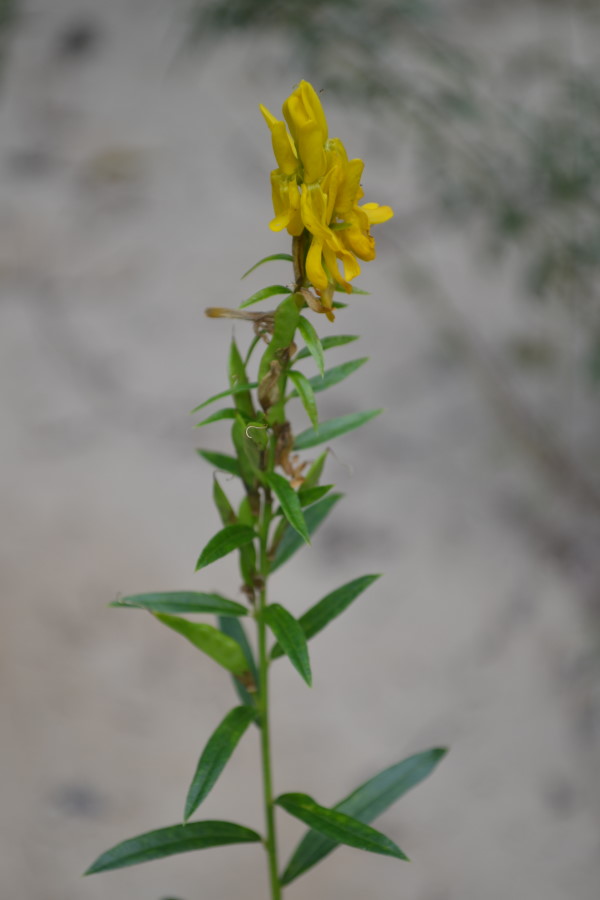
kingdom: Plantae
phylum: Tracheophyta
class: Magnoliopsida
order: Fabales
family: Fabaceae
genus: Genista
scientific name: Genista tinctoria
